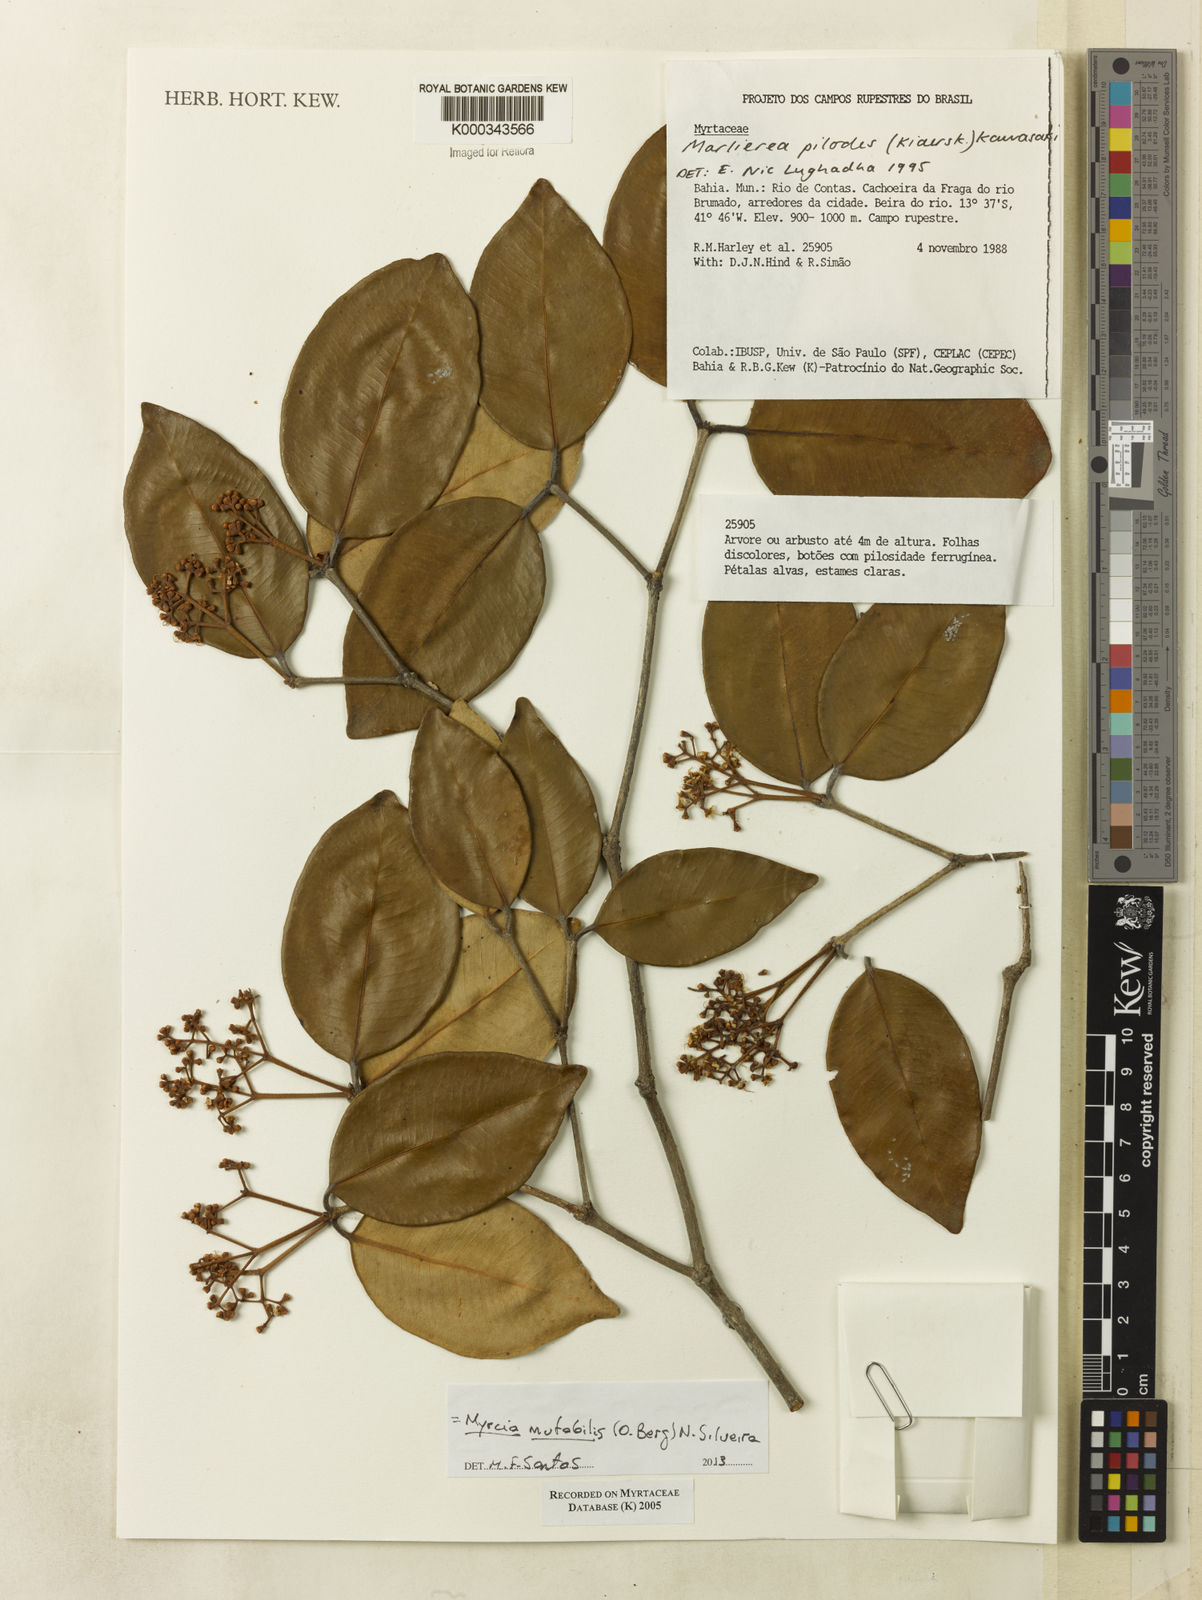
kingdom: Plantae
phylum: Tracheophyta
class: Magnoliopsida
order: Myrtales
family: Myrtaceae
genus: Myrcia
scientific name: Myrcia mutabilis
